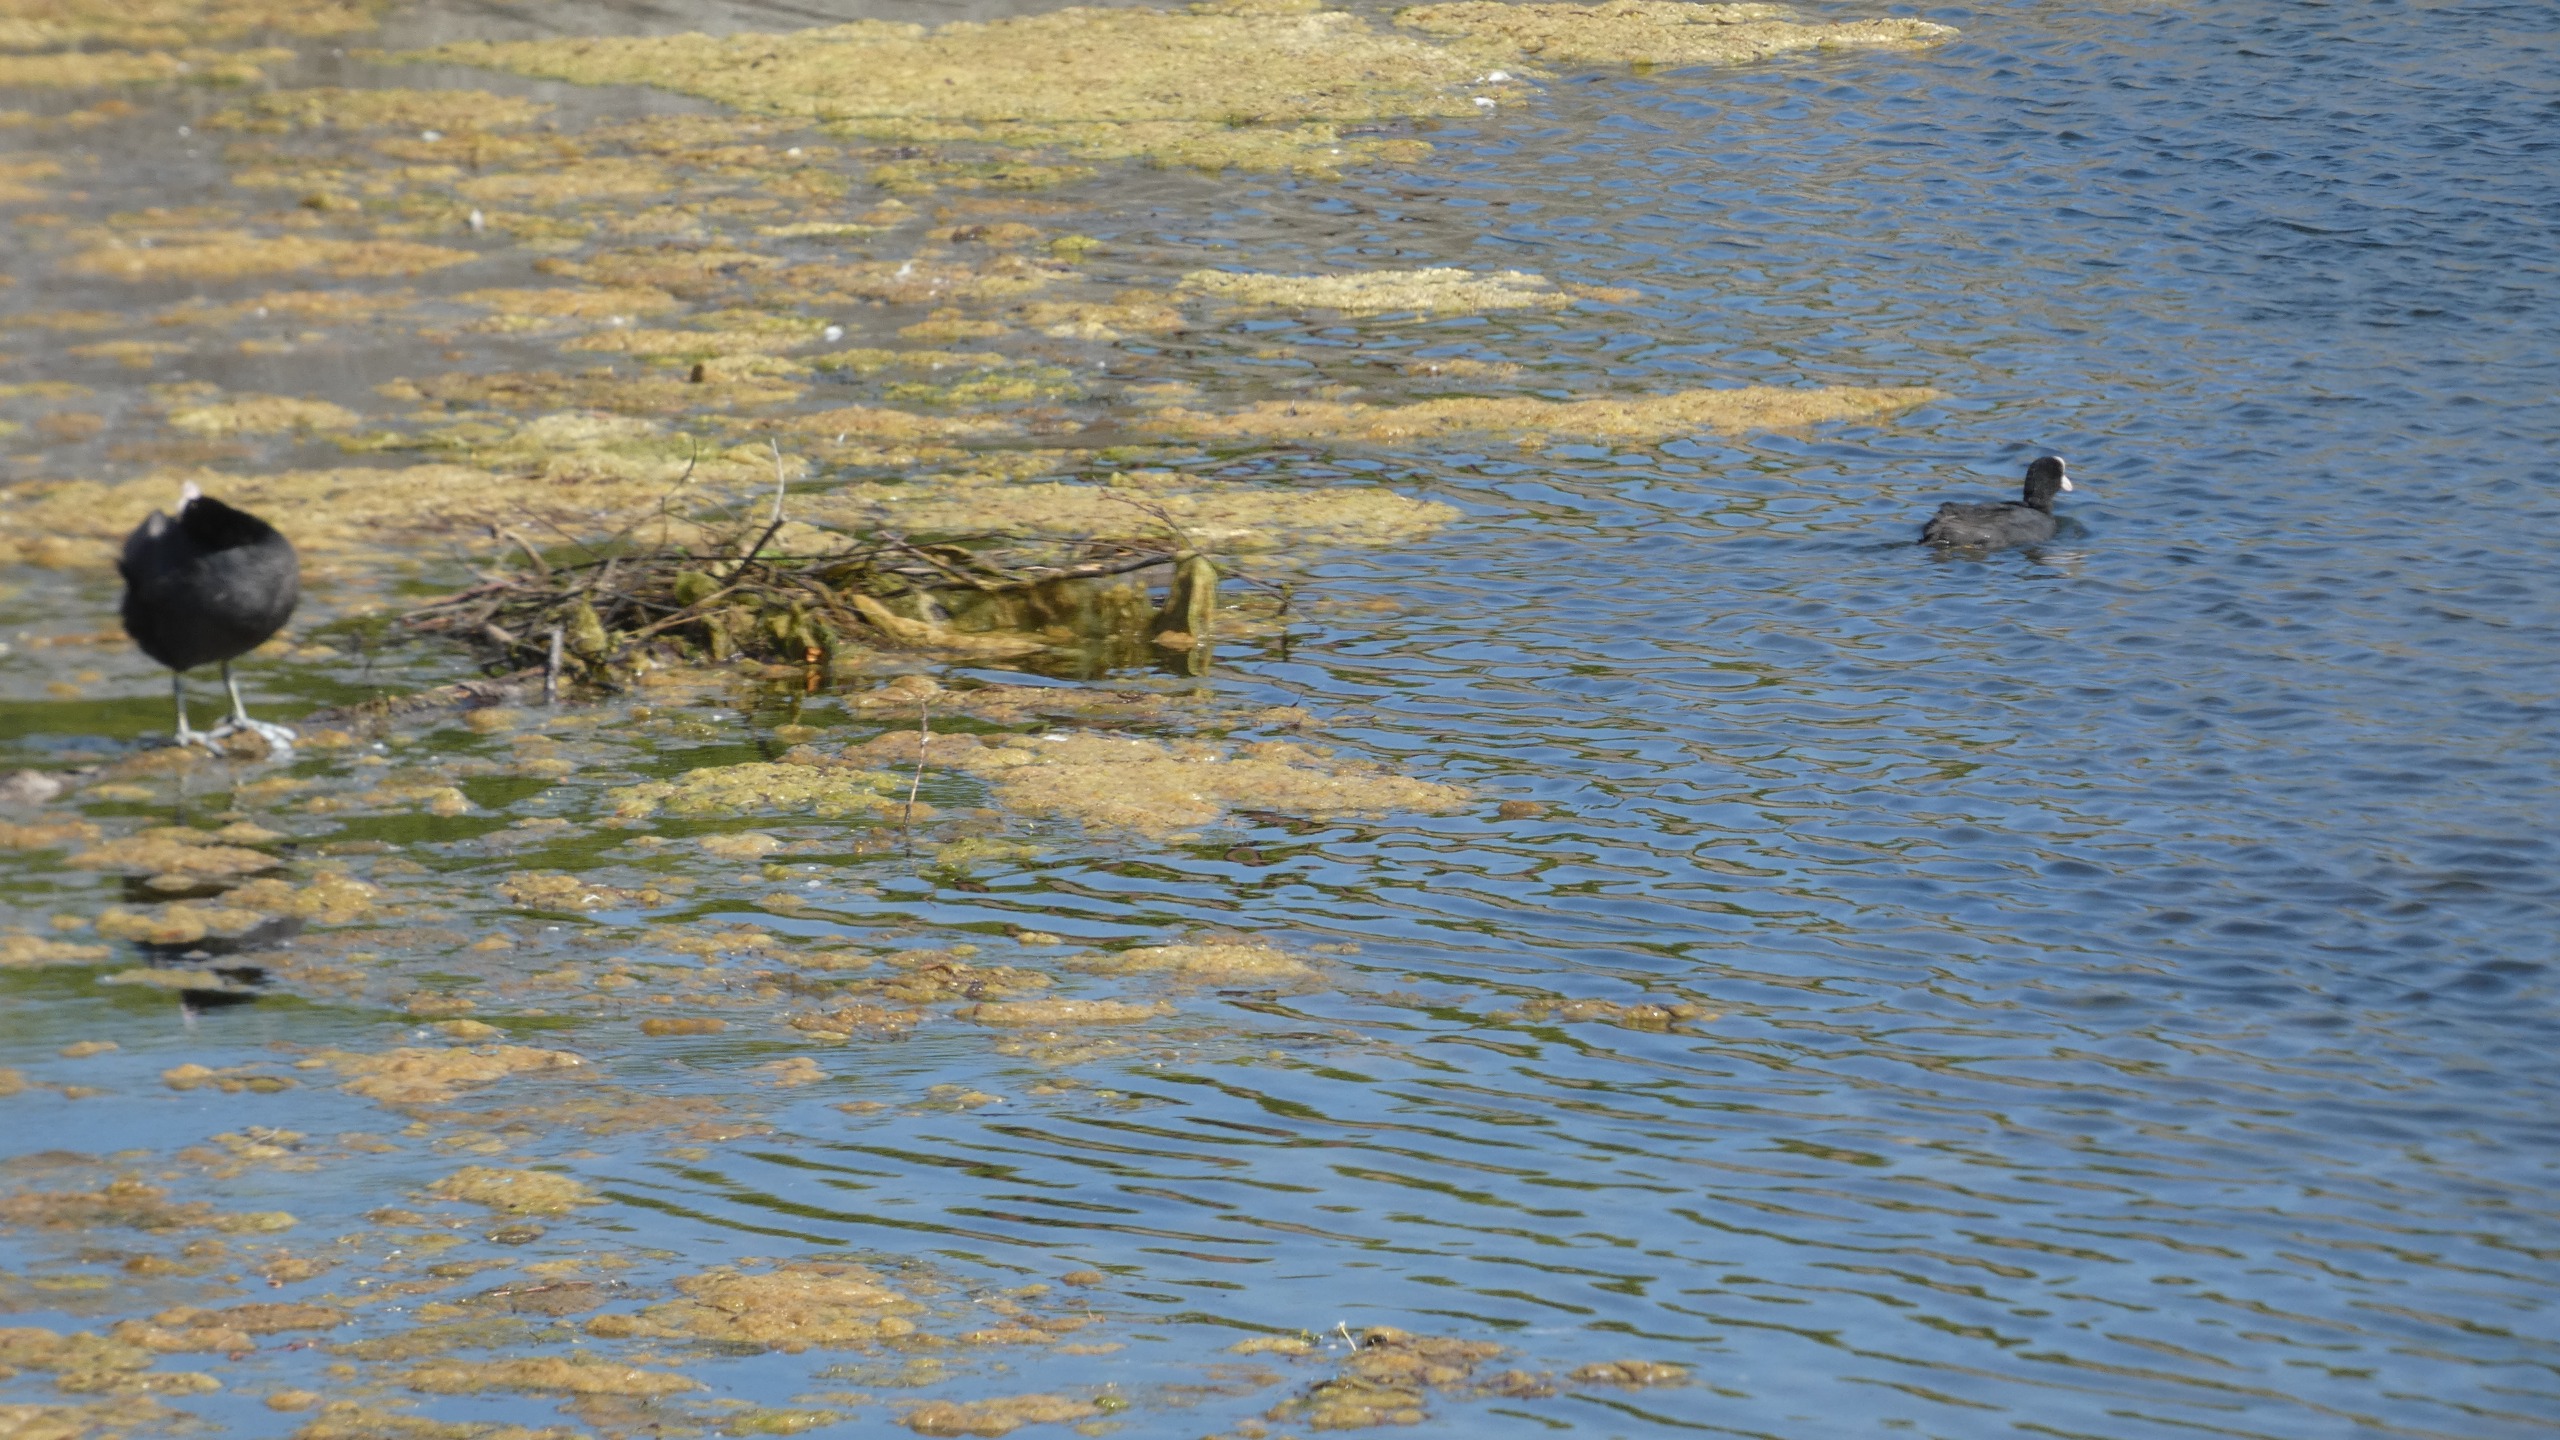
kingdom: Animalia
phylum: Chordata
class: Aves
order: Gruiformes
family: Rallidae
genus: Fulica
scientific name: Fulica atra
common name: Blishøne
